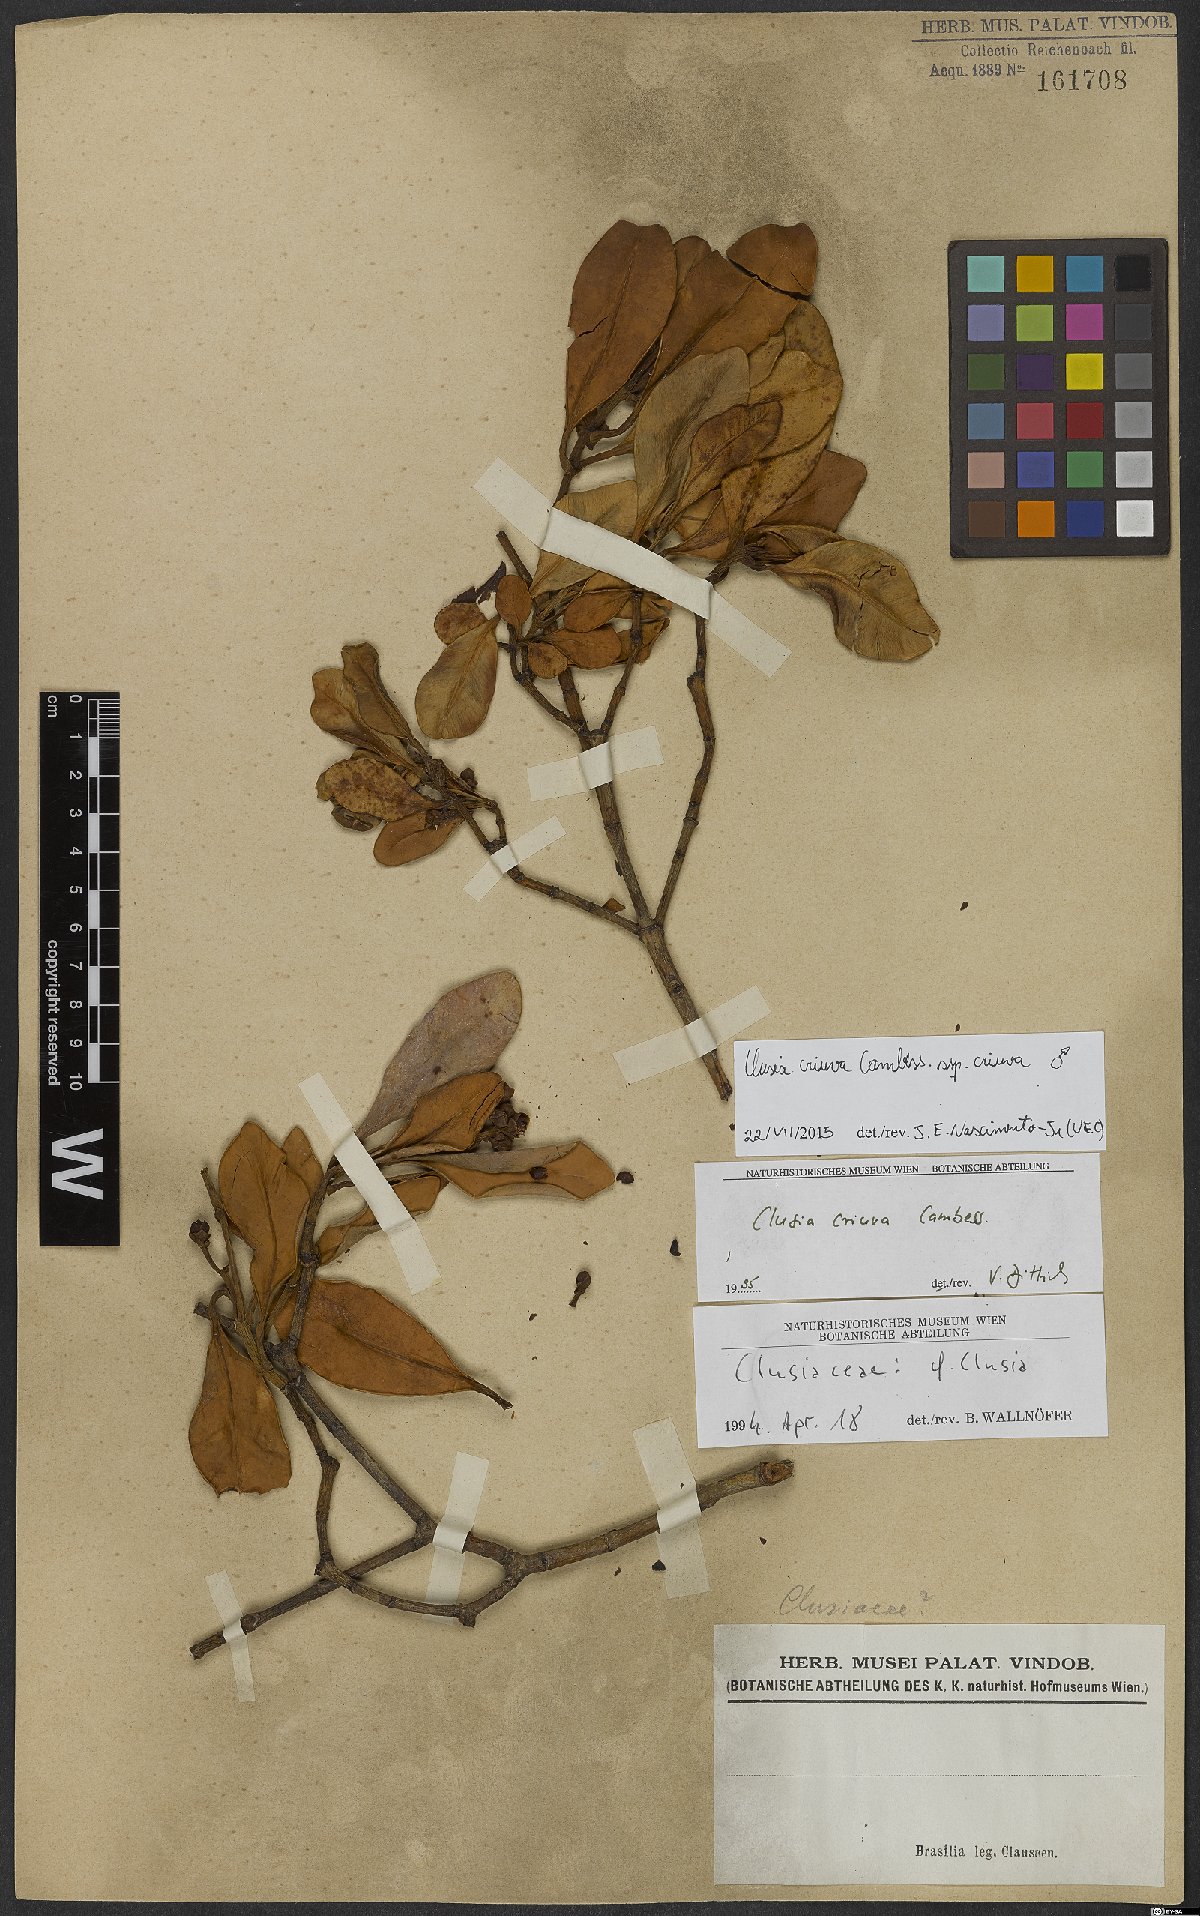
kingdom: Plantae
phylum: Tracheophyta
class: Magnoliopsida
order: Malpighiales
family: Clusiaceae
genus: Clusia
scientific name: Clusia criuva
